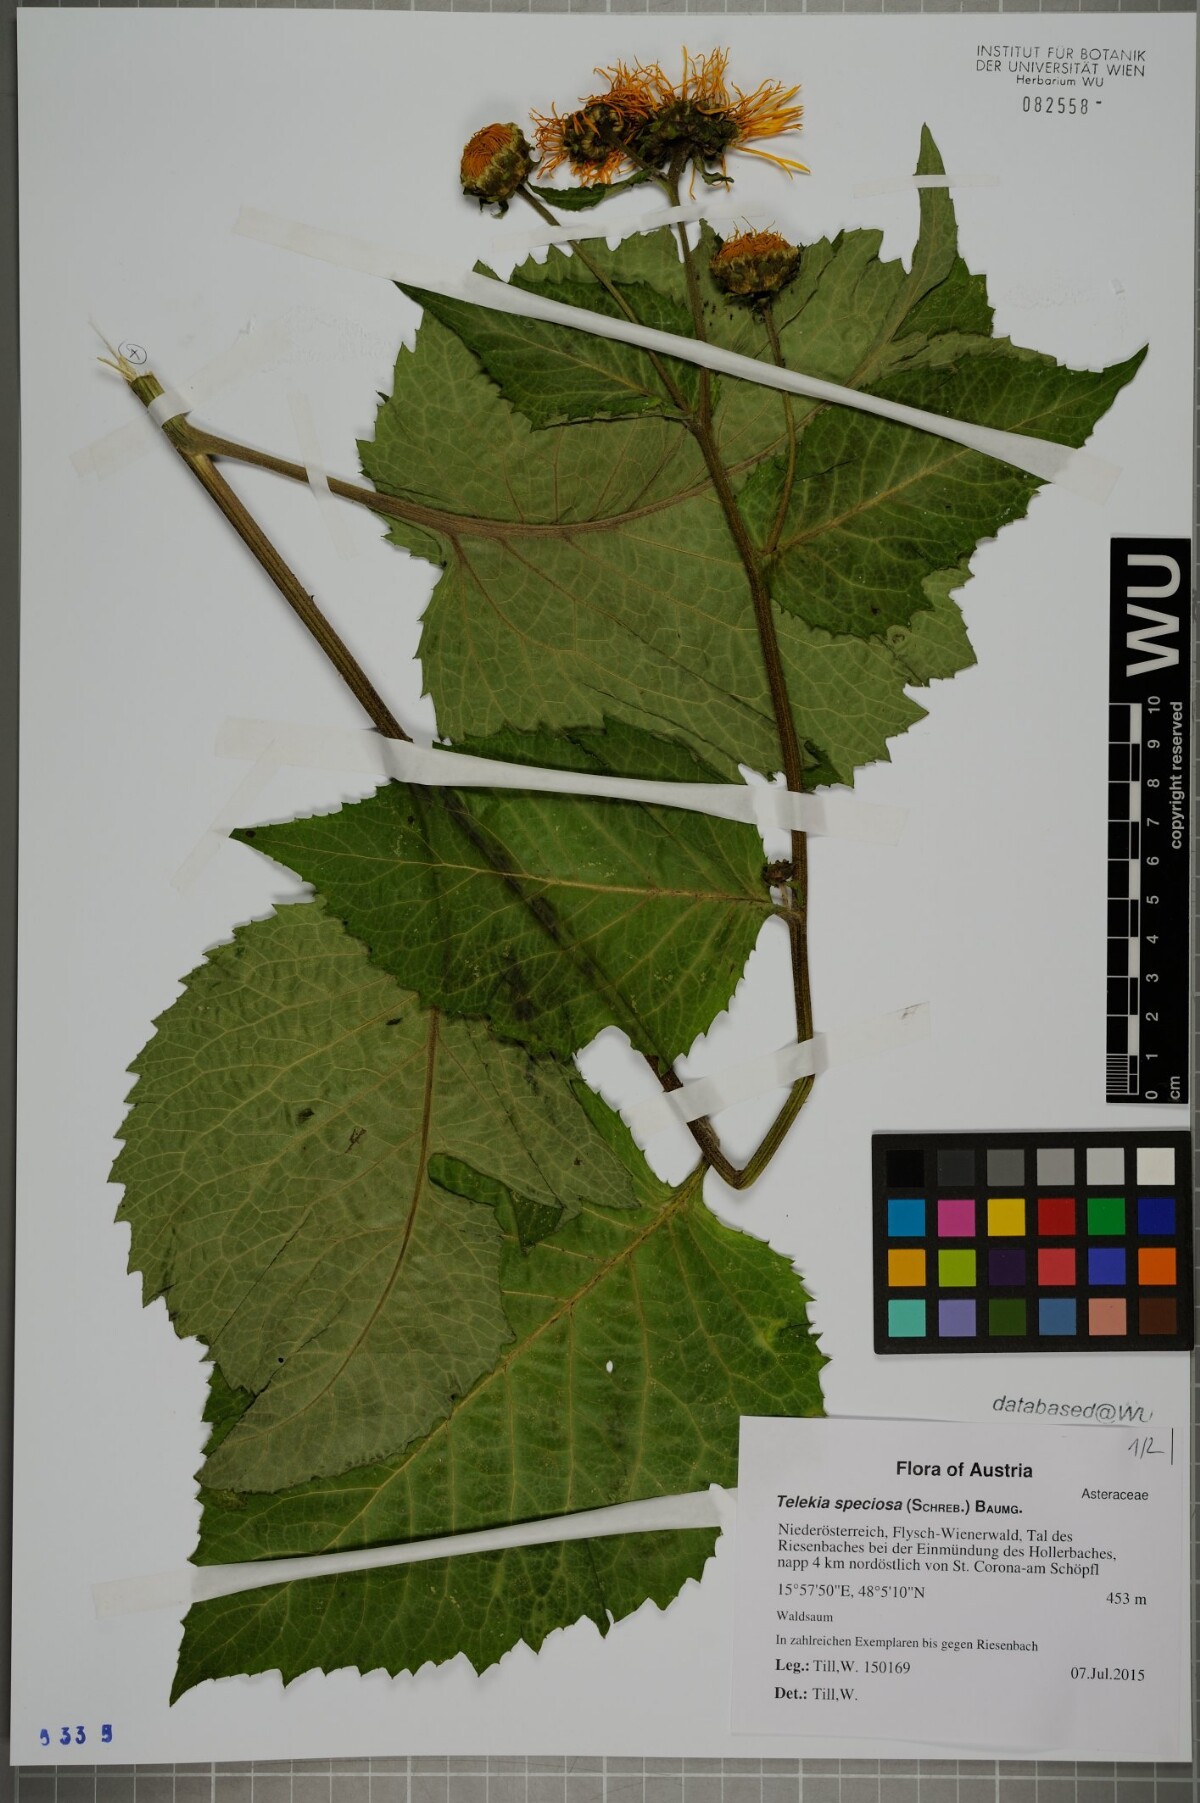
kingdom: Plantae
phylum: Tracheophyta
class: Magnoliopsida
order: Asterales
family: Asteraceae
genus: Telekia
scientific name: Telekia speciosa
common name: Yellow oxeye
